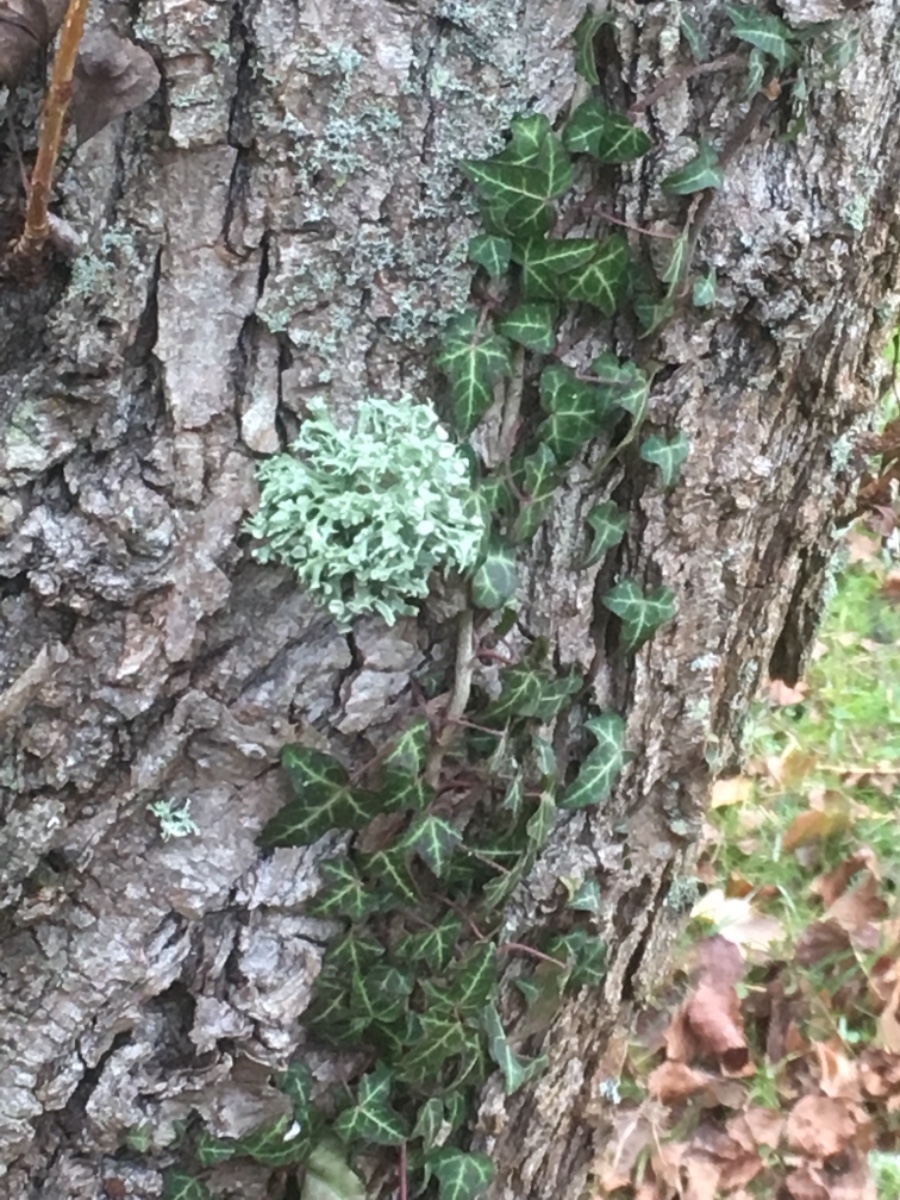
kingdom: Fungi
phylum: Ascomycota
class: Lecanoromycetes
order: Lecanorales
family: Ramalinaceae
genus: Ramalina
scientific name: Ramalina fastigiata
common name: tue-grenlav
